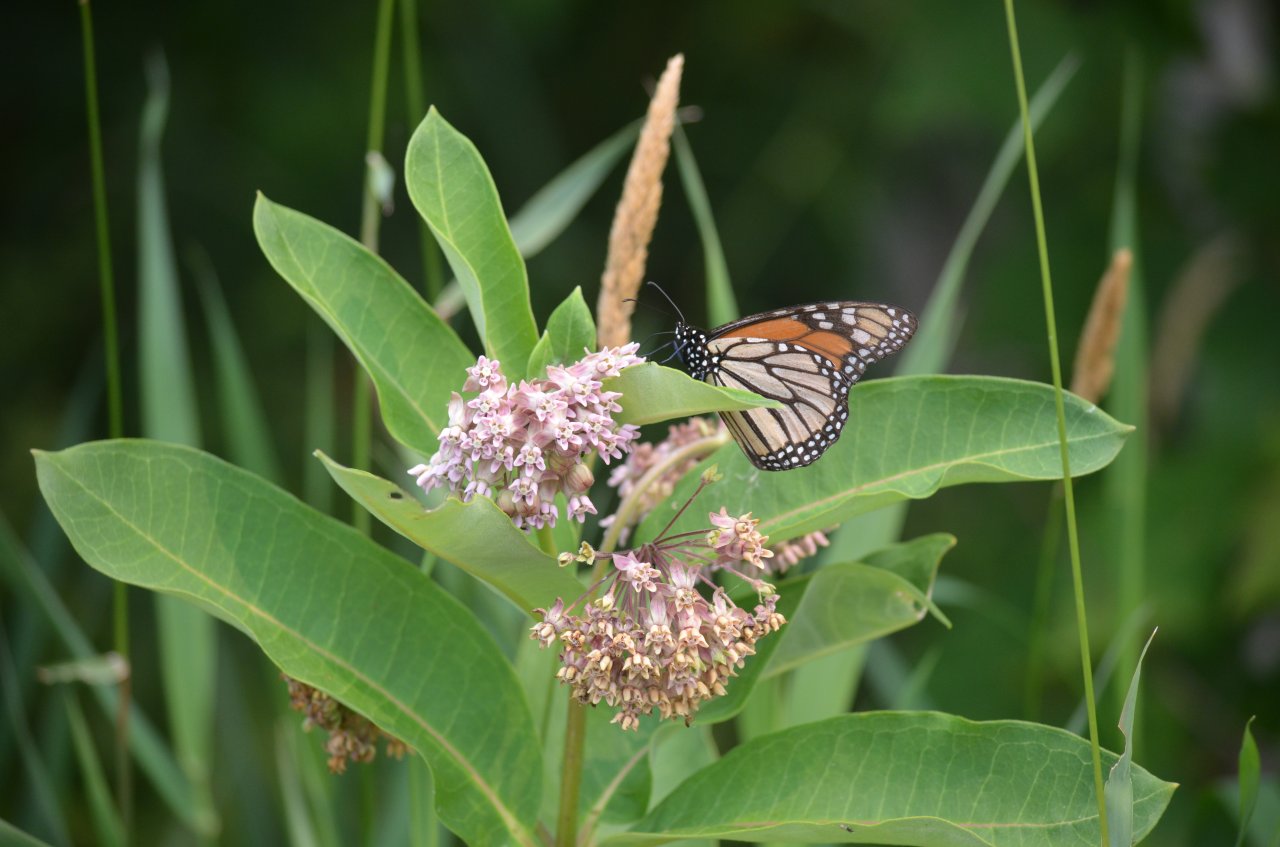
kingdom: Animalia
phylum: Arthropoda
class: Insecta
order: Lepidoptera
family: Nymphalidae
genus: Danaus
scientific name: Danaus plexippus
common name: Monarch
